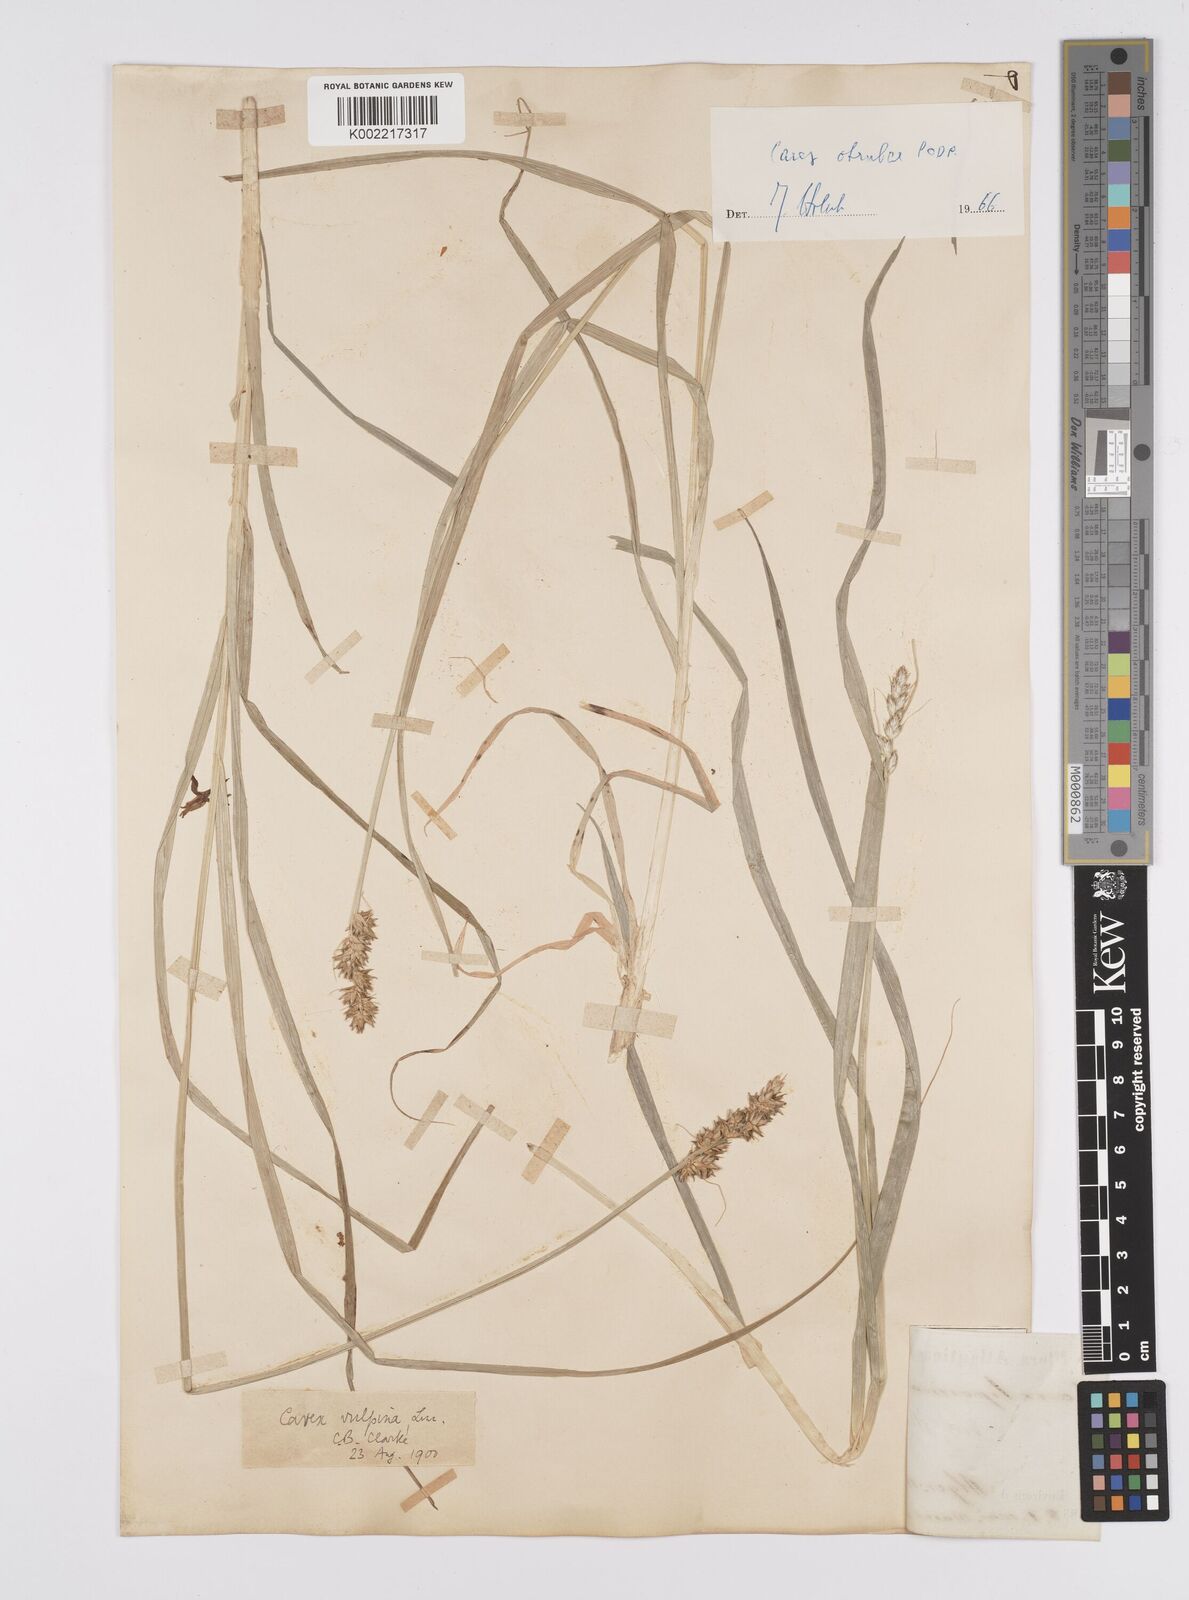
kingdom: Plantae
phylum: Tracheophyta
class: Liliopsida
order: Poales
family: Cyperaceae
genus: Carex
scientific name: Carex otrubae
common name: False fox-sedge
